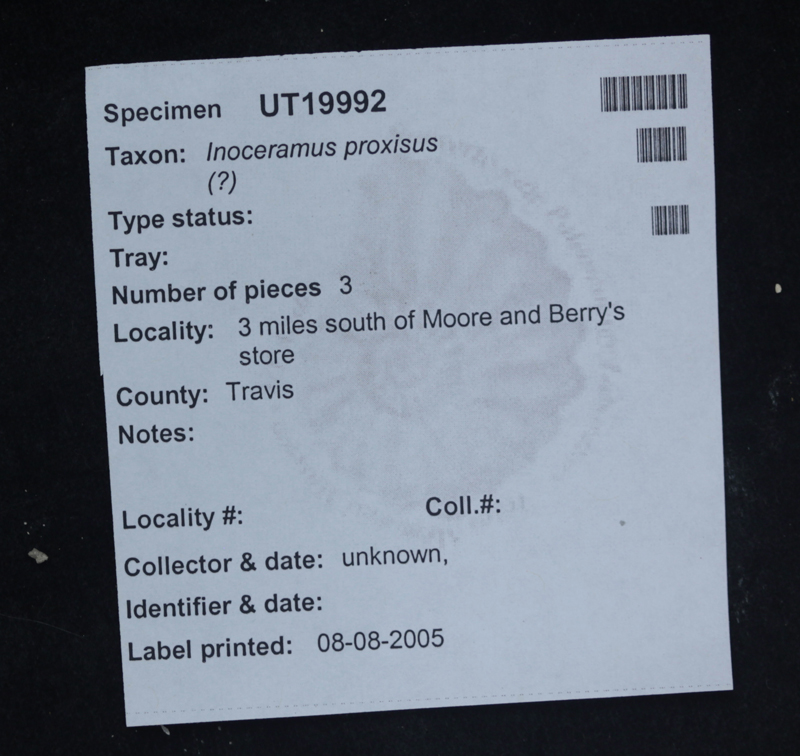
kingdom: Animalia
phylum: Mollusca
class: Bivalvia
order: Myalinida
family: Inoceramidae
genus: Inoceramus
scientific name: Inoceramus
